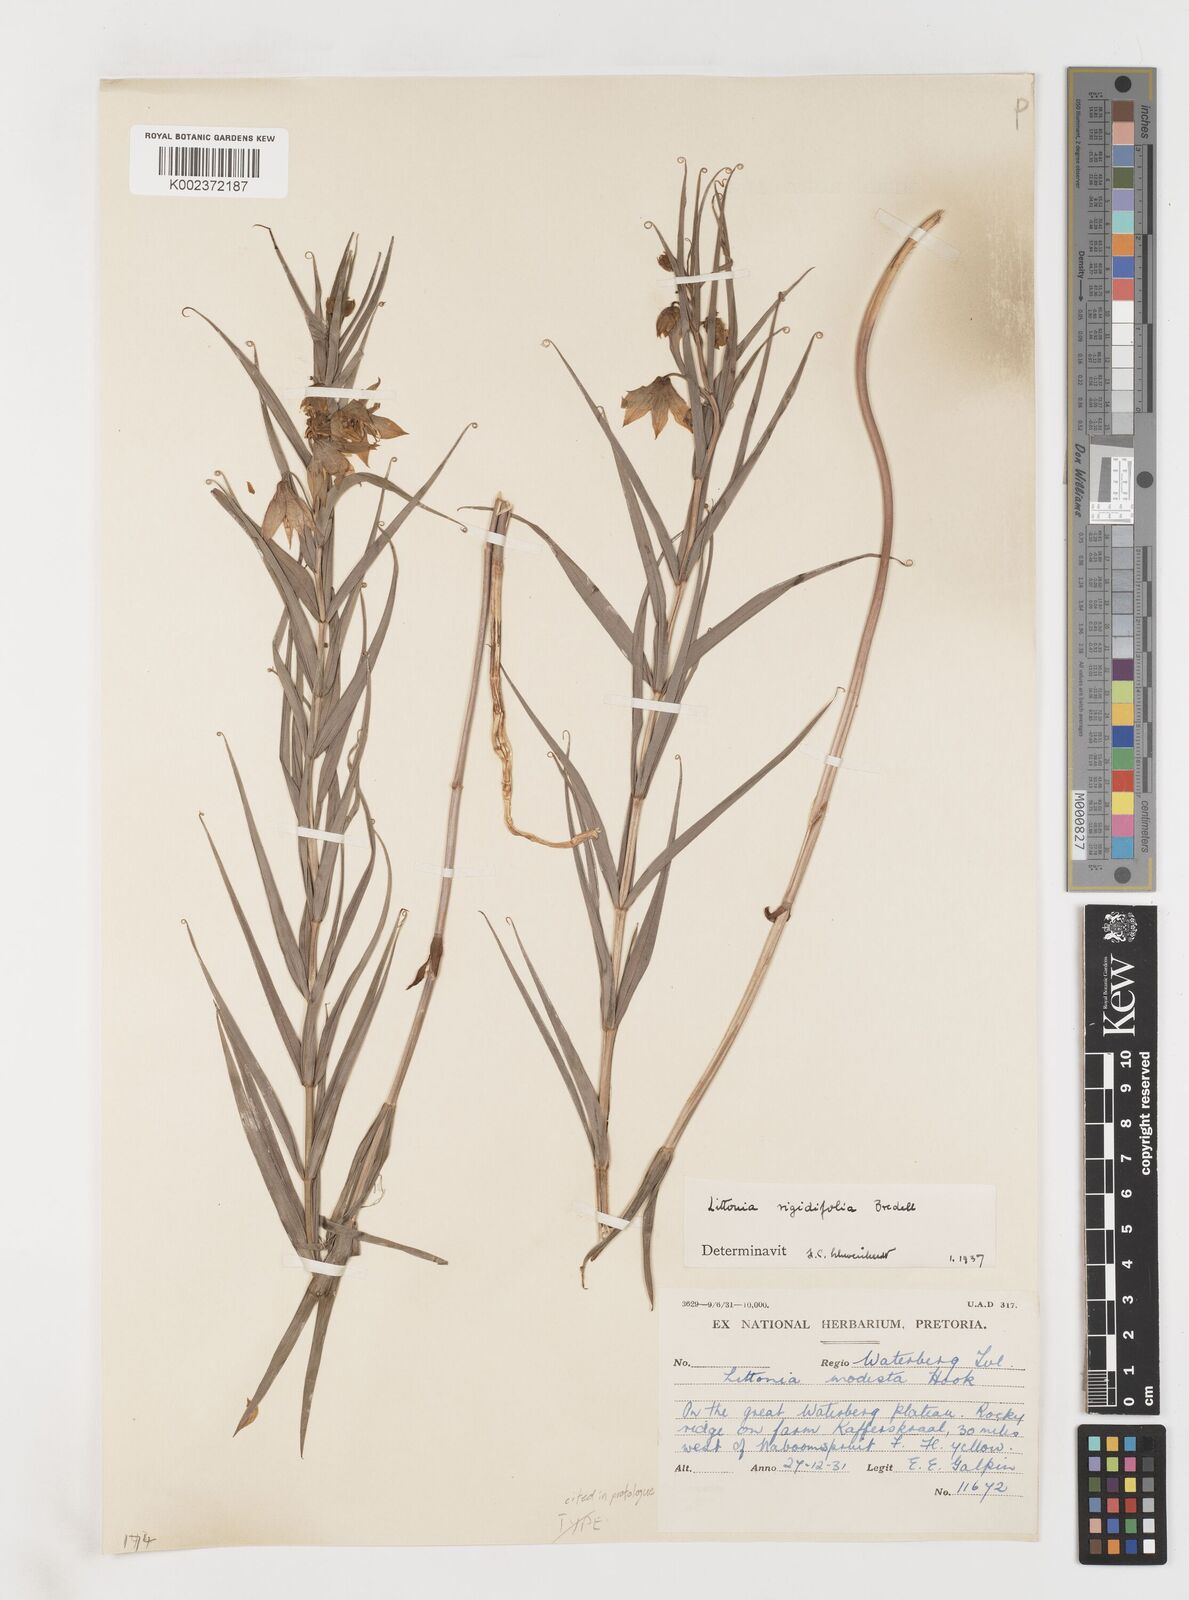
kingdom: Plantae
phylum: Tracheophyta
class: Liliopsida
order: Liliales
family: Colchicaceae
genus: Gloriosa
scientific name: Gloriosa rigidifolia
